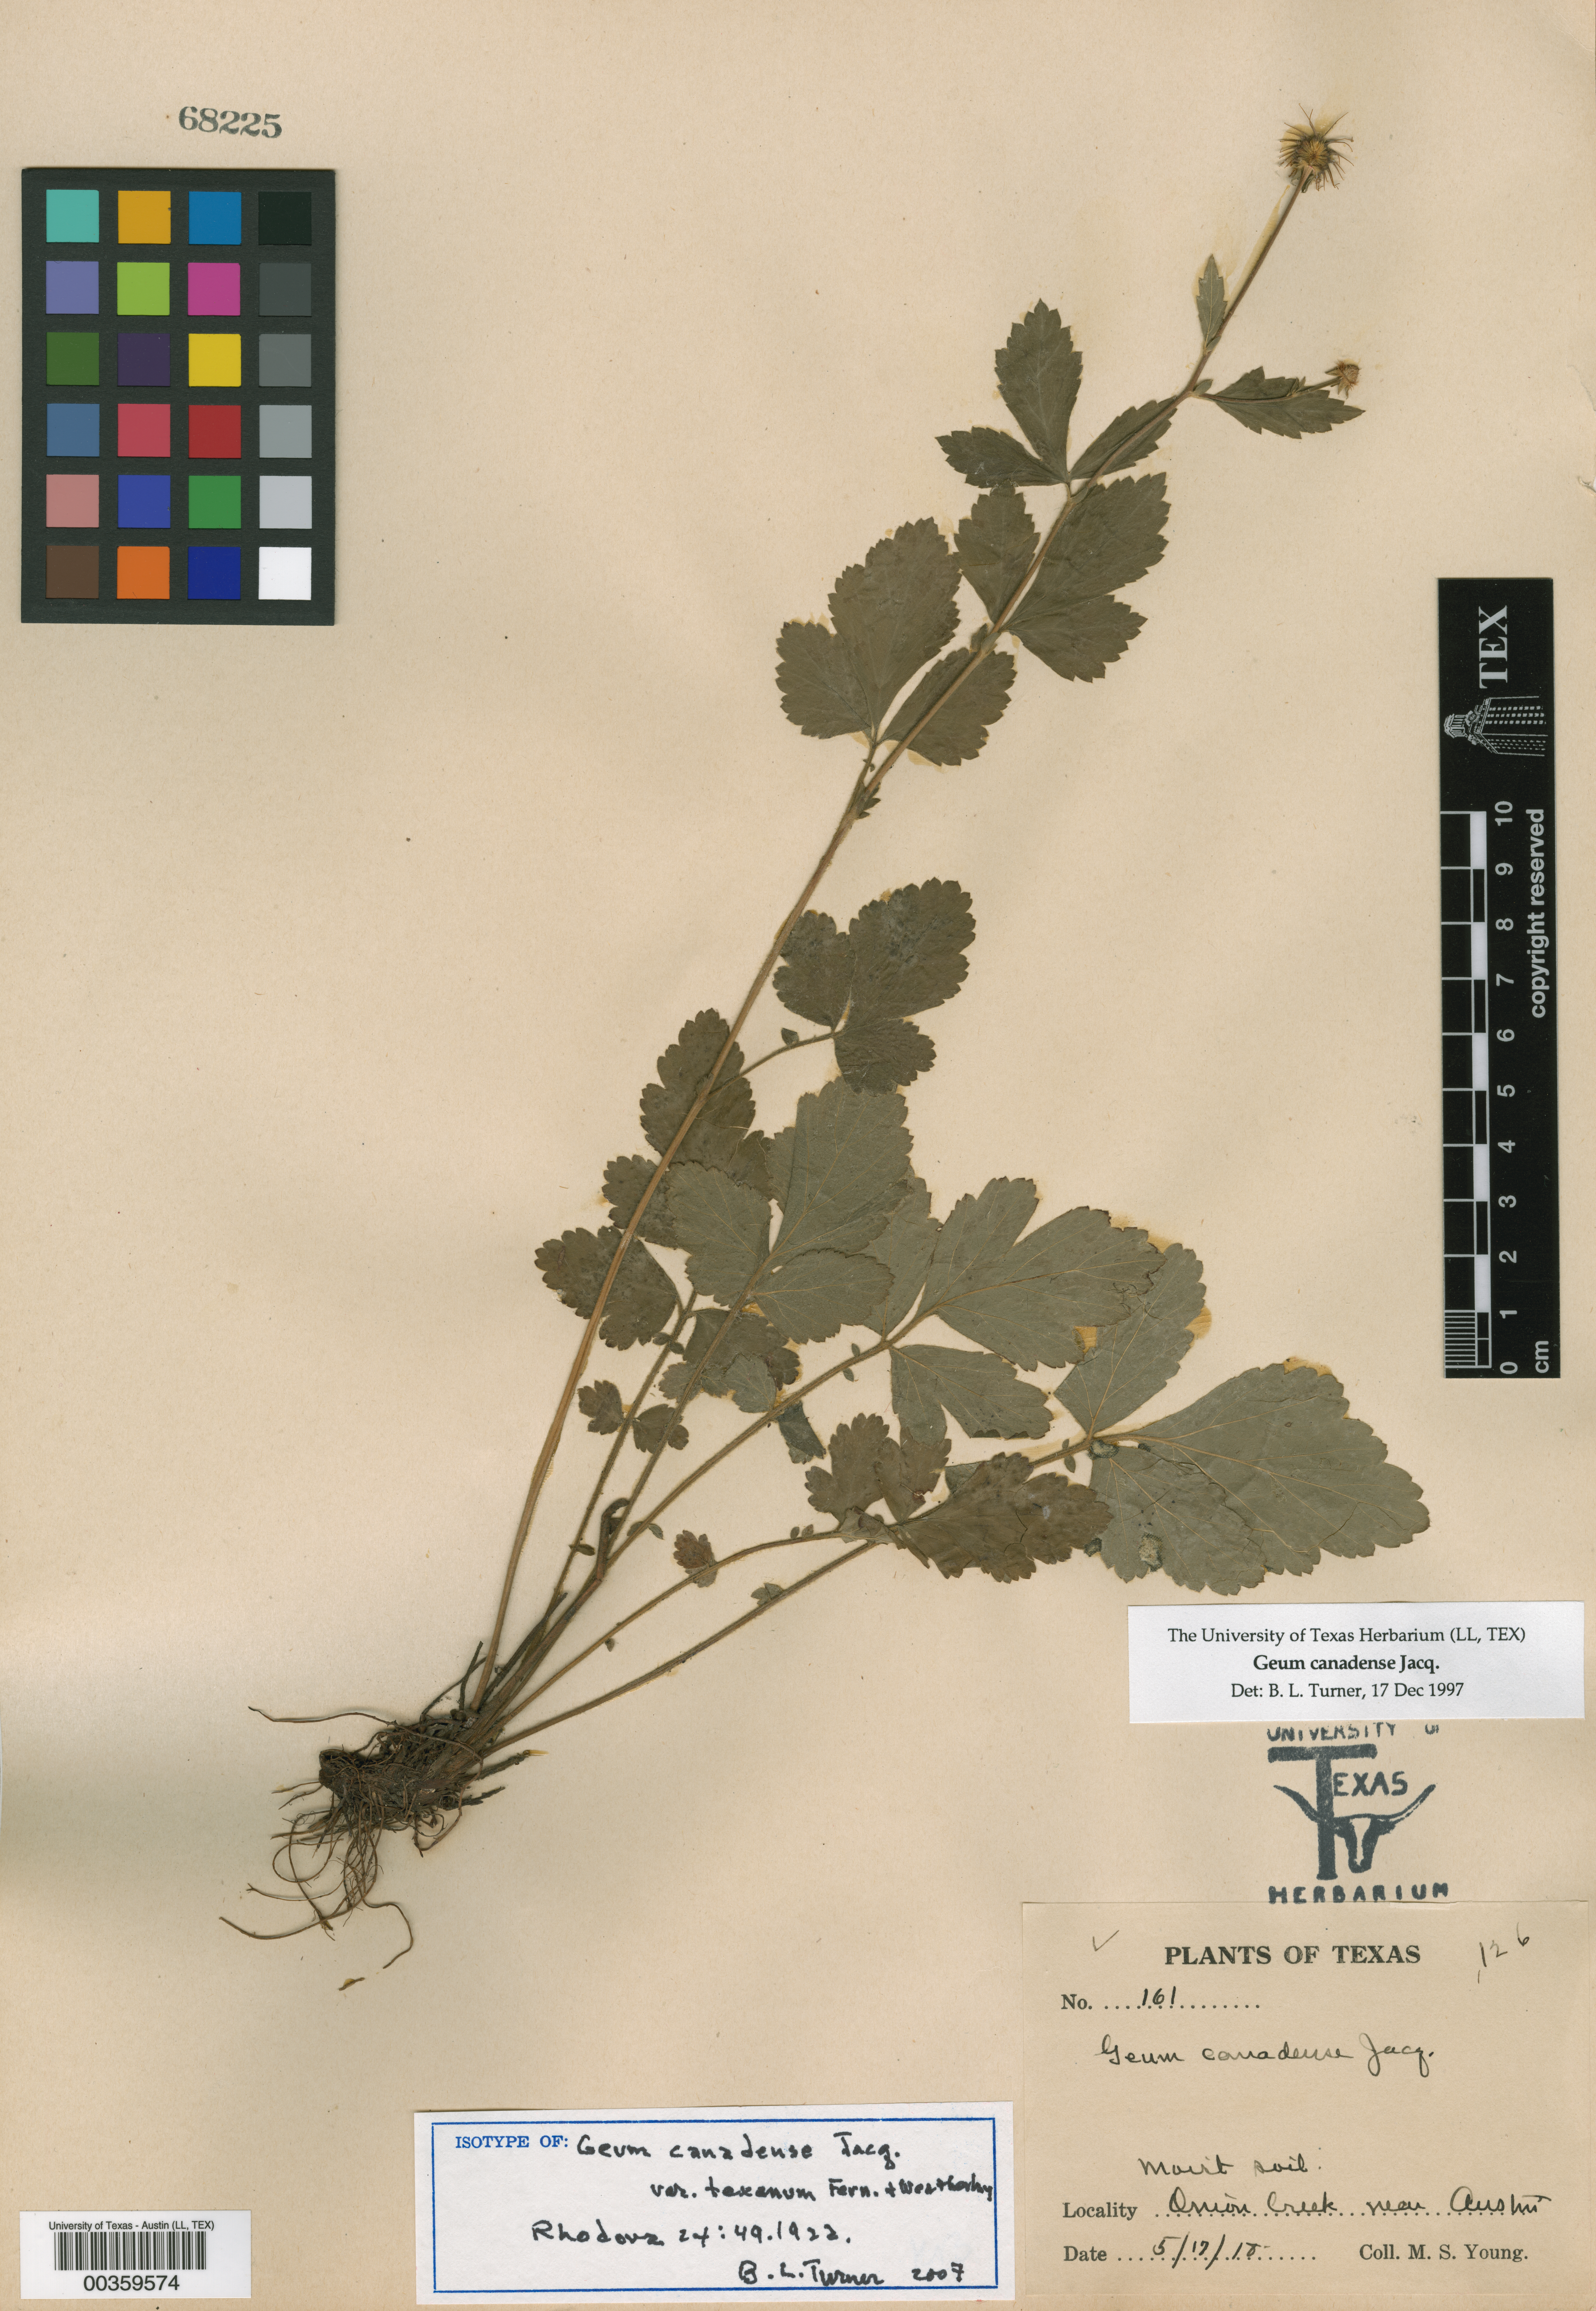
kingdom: Plantae
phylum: Tracheophyta
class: Magnoliopsida
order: Rosales
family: Rosaceae
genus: Geum
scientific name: Geum canadense
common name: White avens
